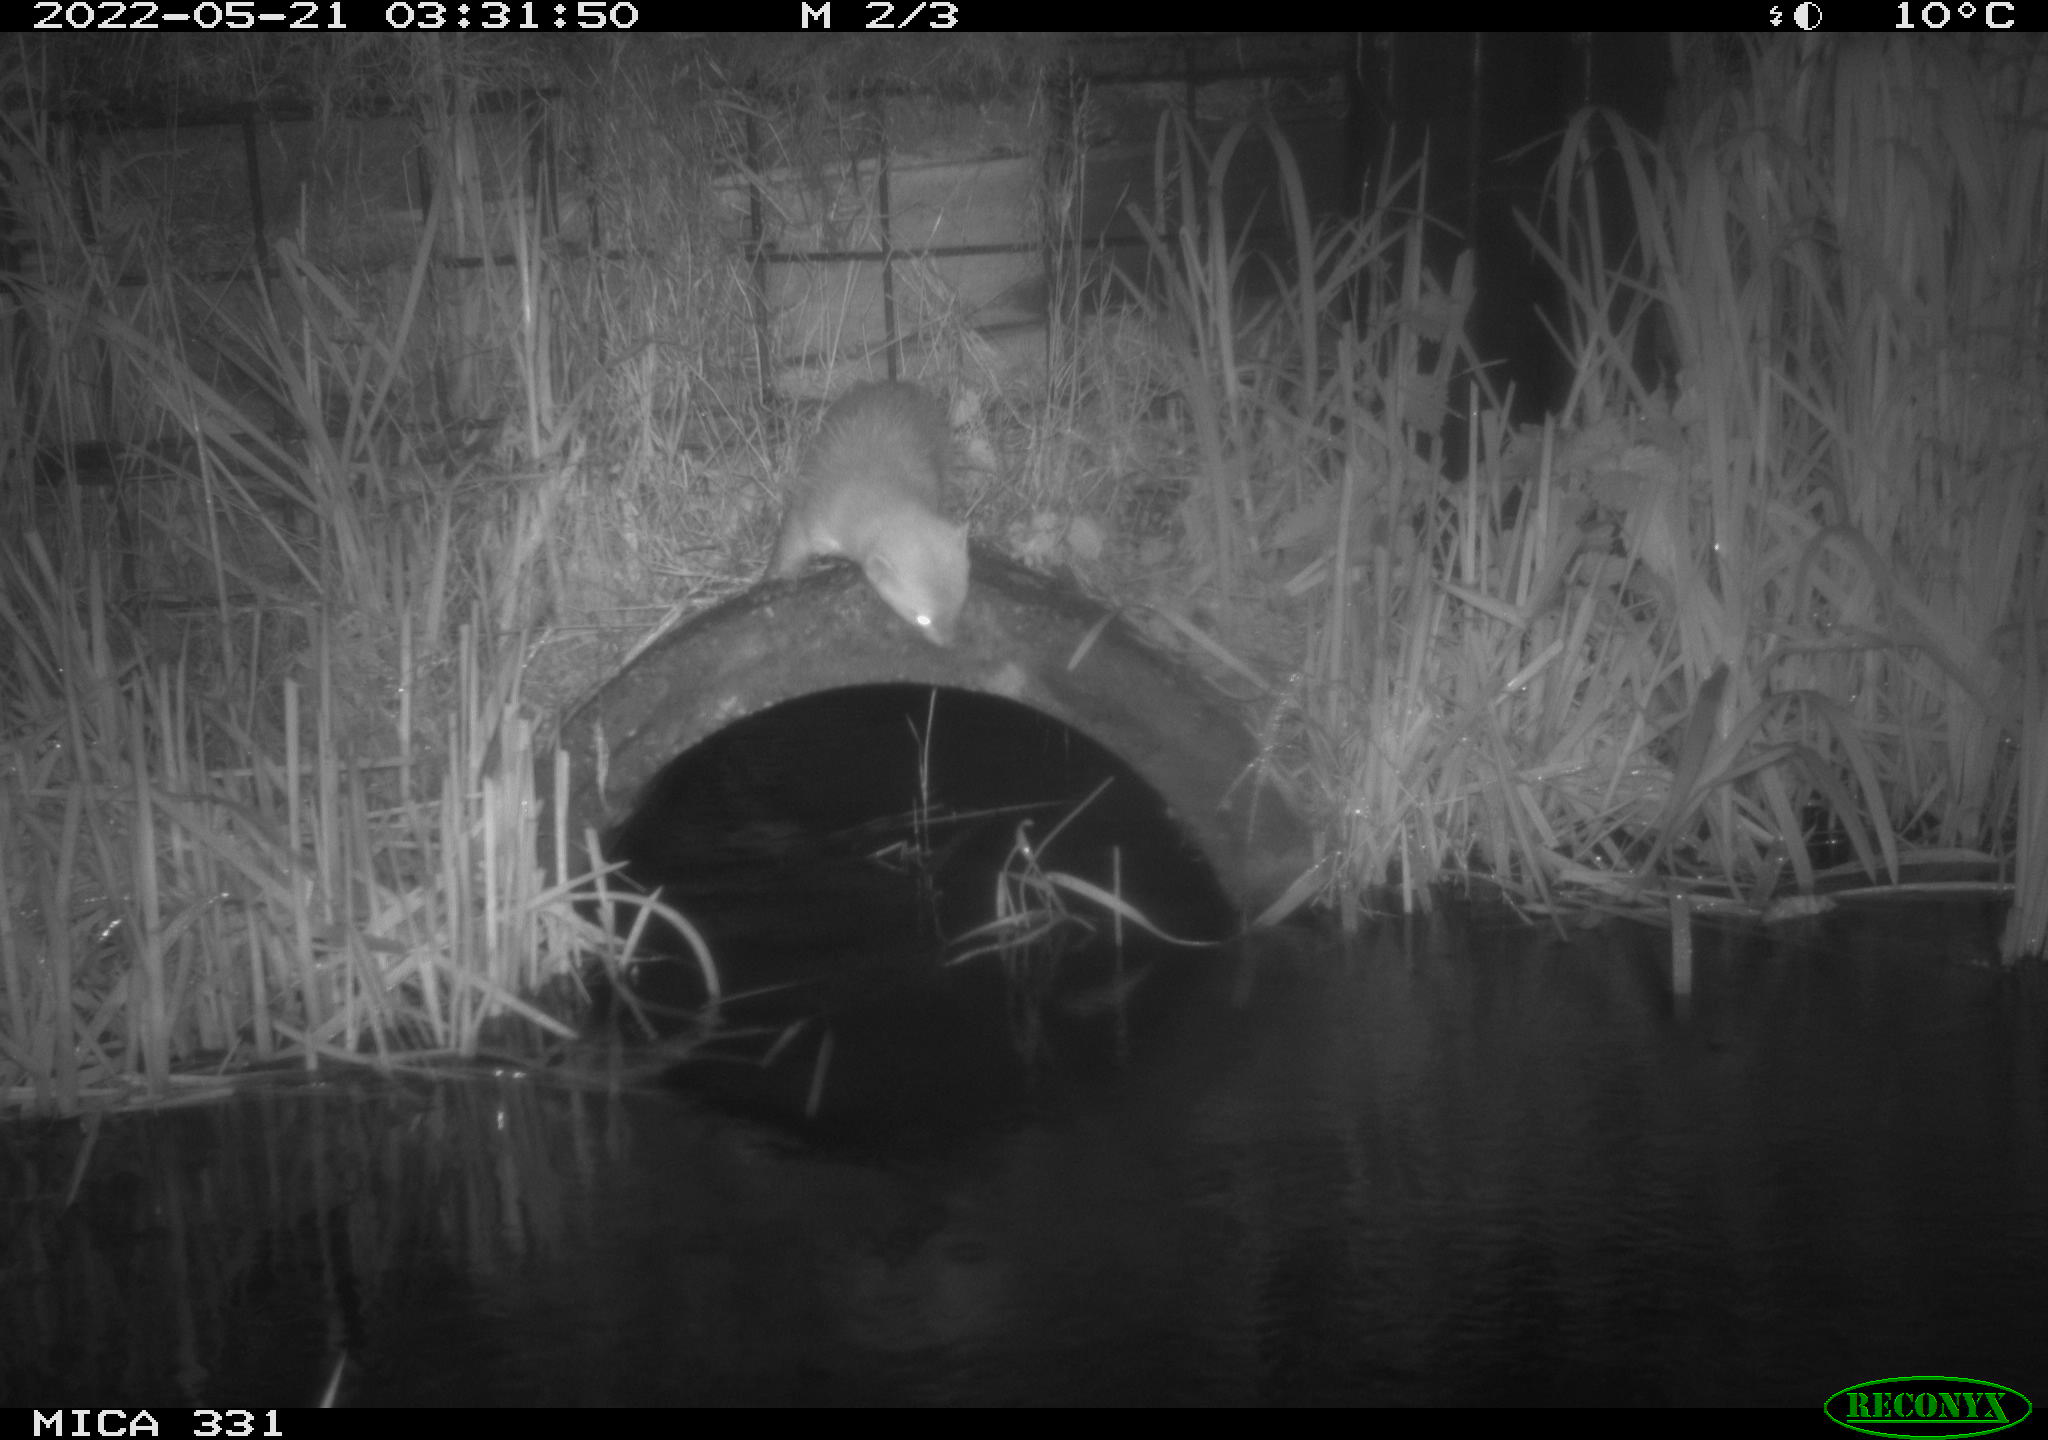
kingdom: Animalia
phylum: Chordata
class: Mammalia
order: Carnivora
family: Mustelidae
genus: Martes
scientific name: Martes foina
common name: Beech marten
